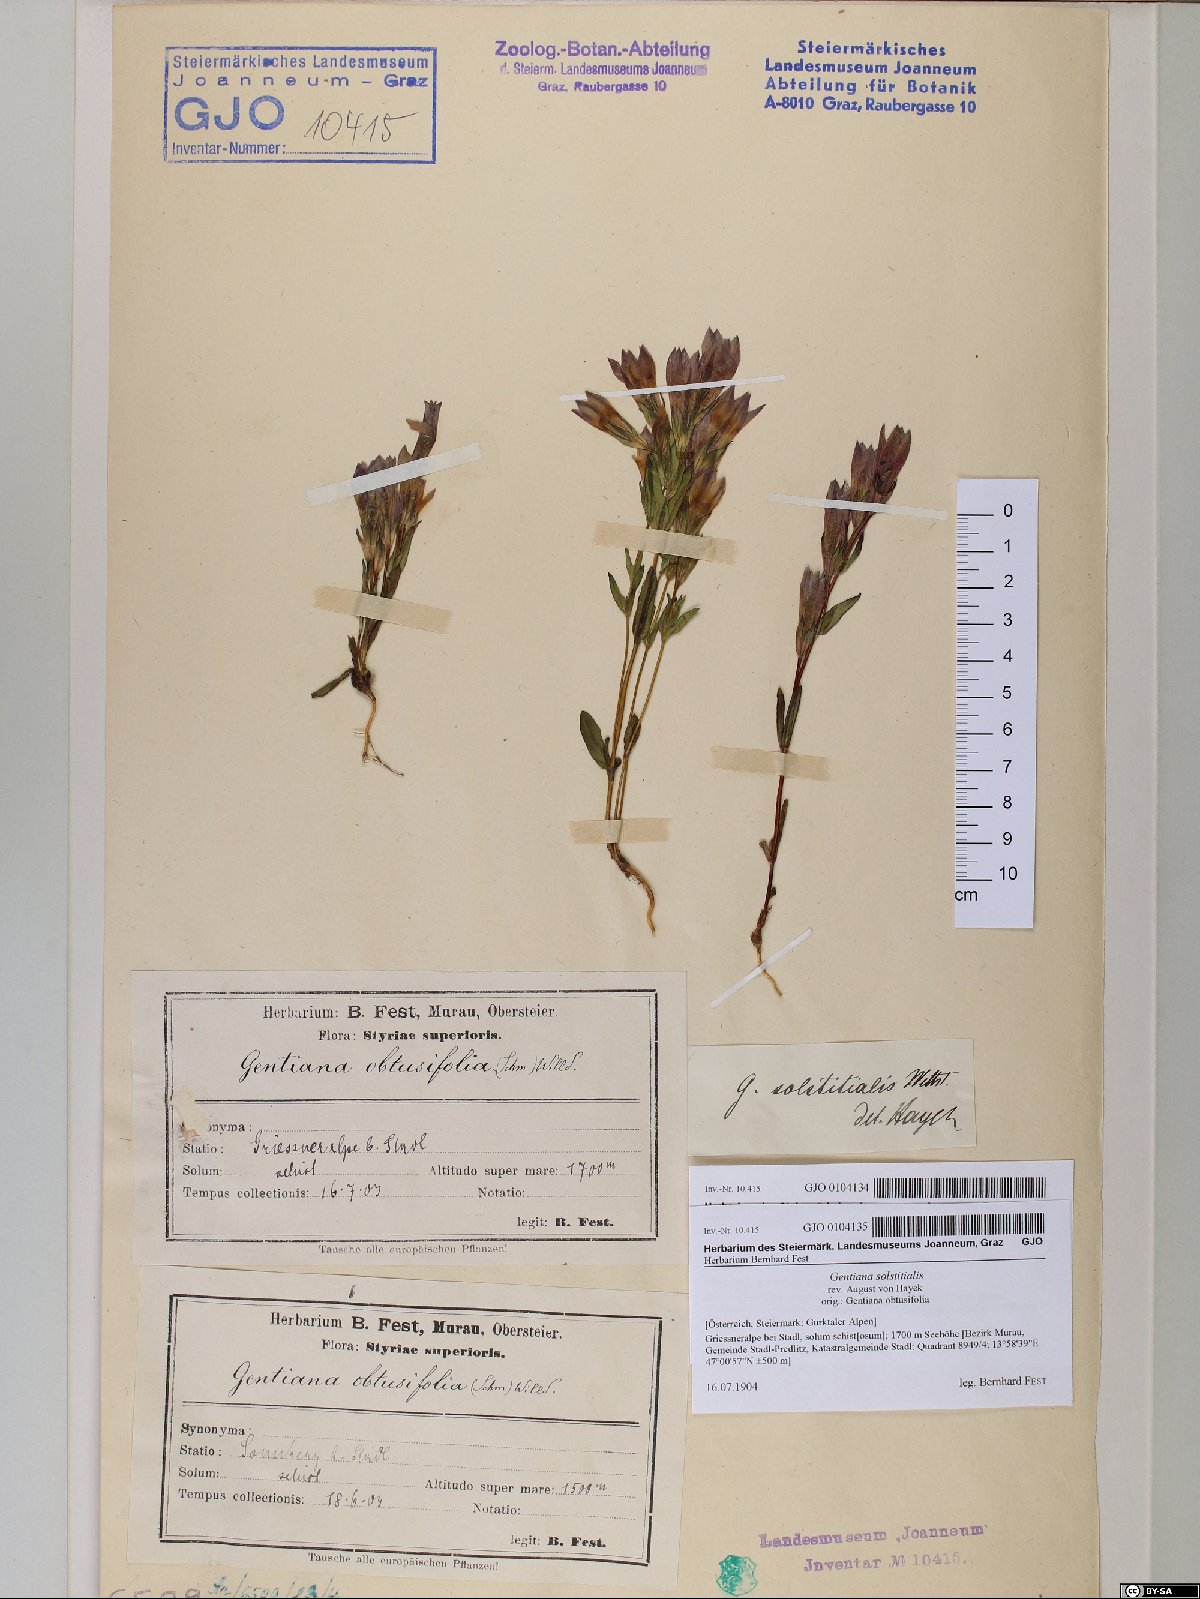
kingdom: Plantae
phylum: Tracheophyta
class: Magnoliopsida
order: Gentianales
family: Gentianaceae
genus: Gentianella
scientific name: Gentianella germanica
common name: Chiltern-gentian
